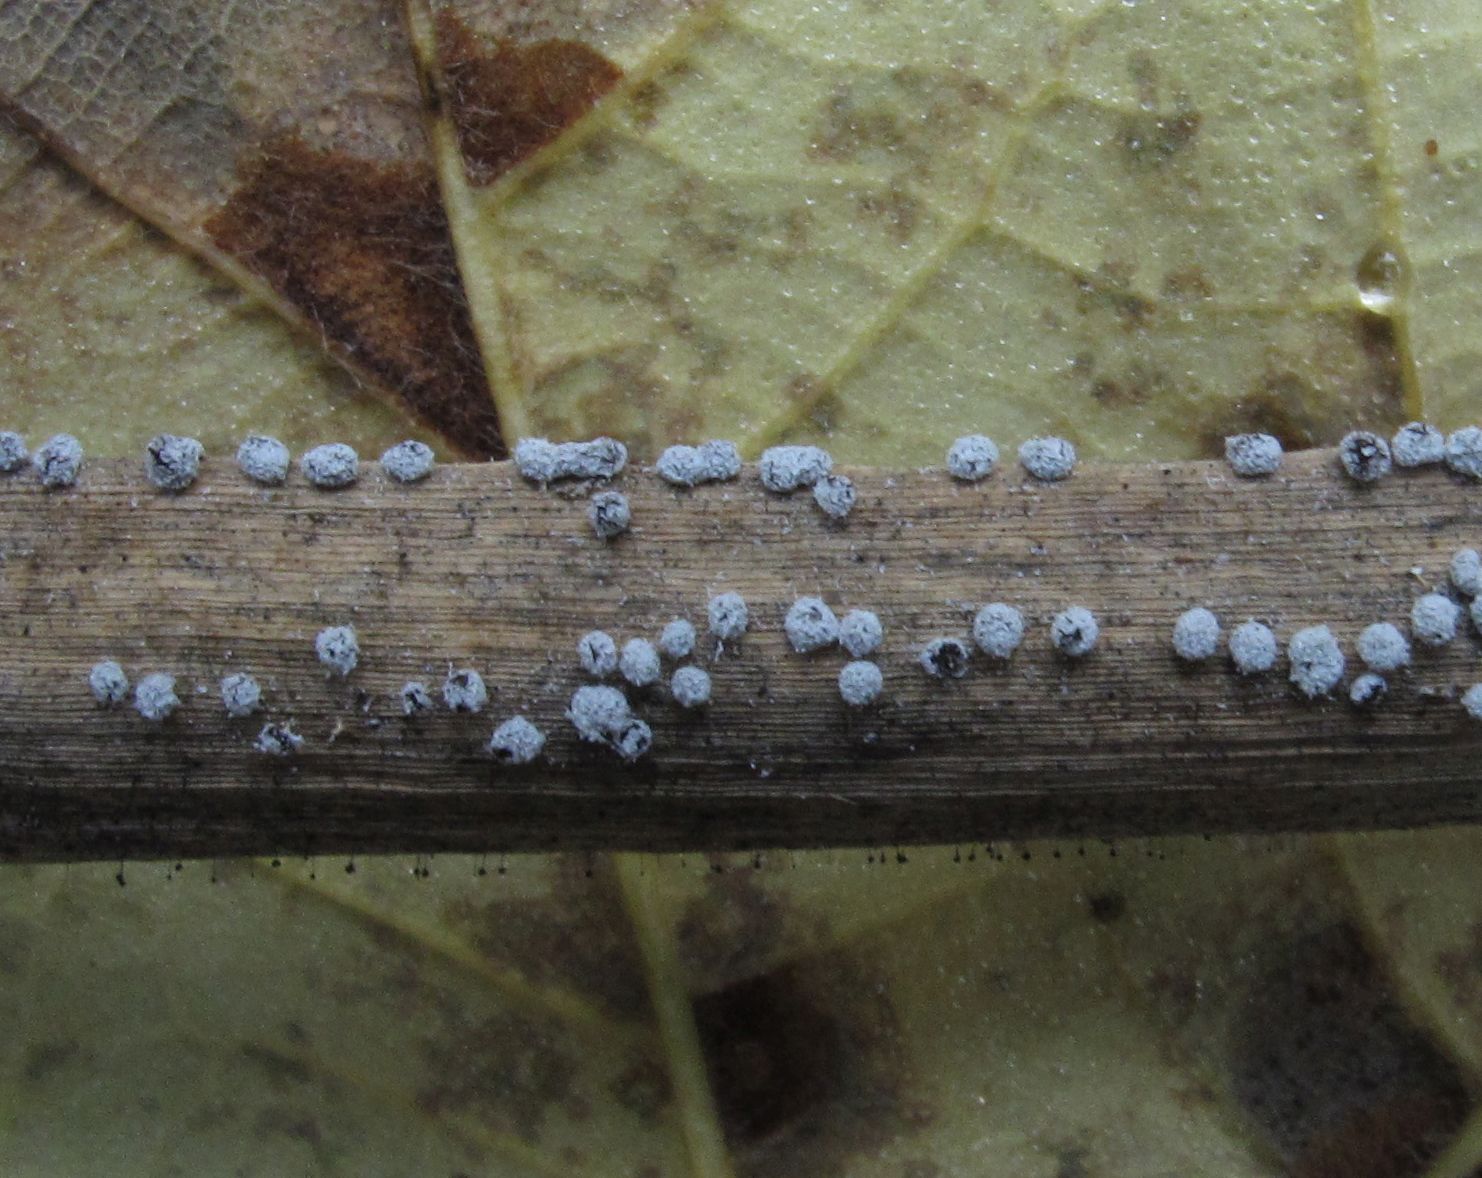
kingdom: Protozoa
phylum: Mycetozoa
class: Myxomycetes
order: Physarales
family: Didymiaceae
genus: Didymium
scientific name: Didymium squamulosum
